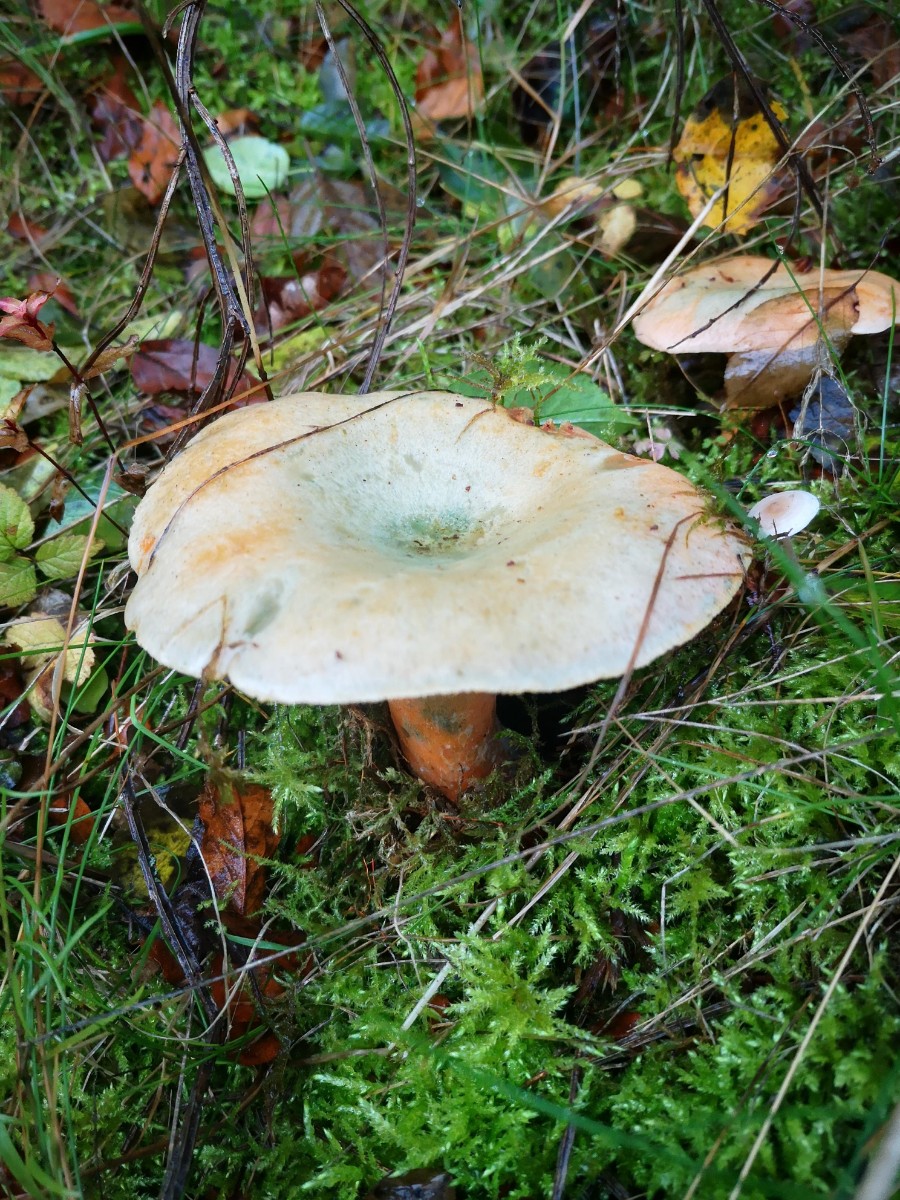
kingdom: Fungi
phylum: Basidiomycota
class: Agaricomycetes
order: Russulales
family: Russulaceae
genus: Lactarius
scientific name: Lactarius deterrimus
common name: gran-mælkehat
